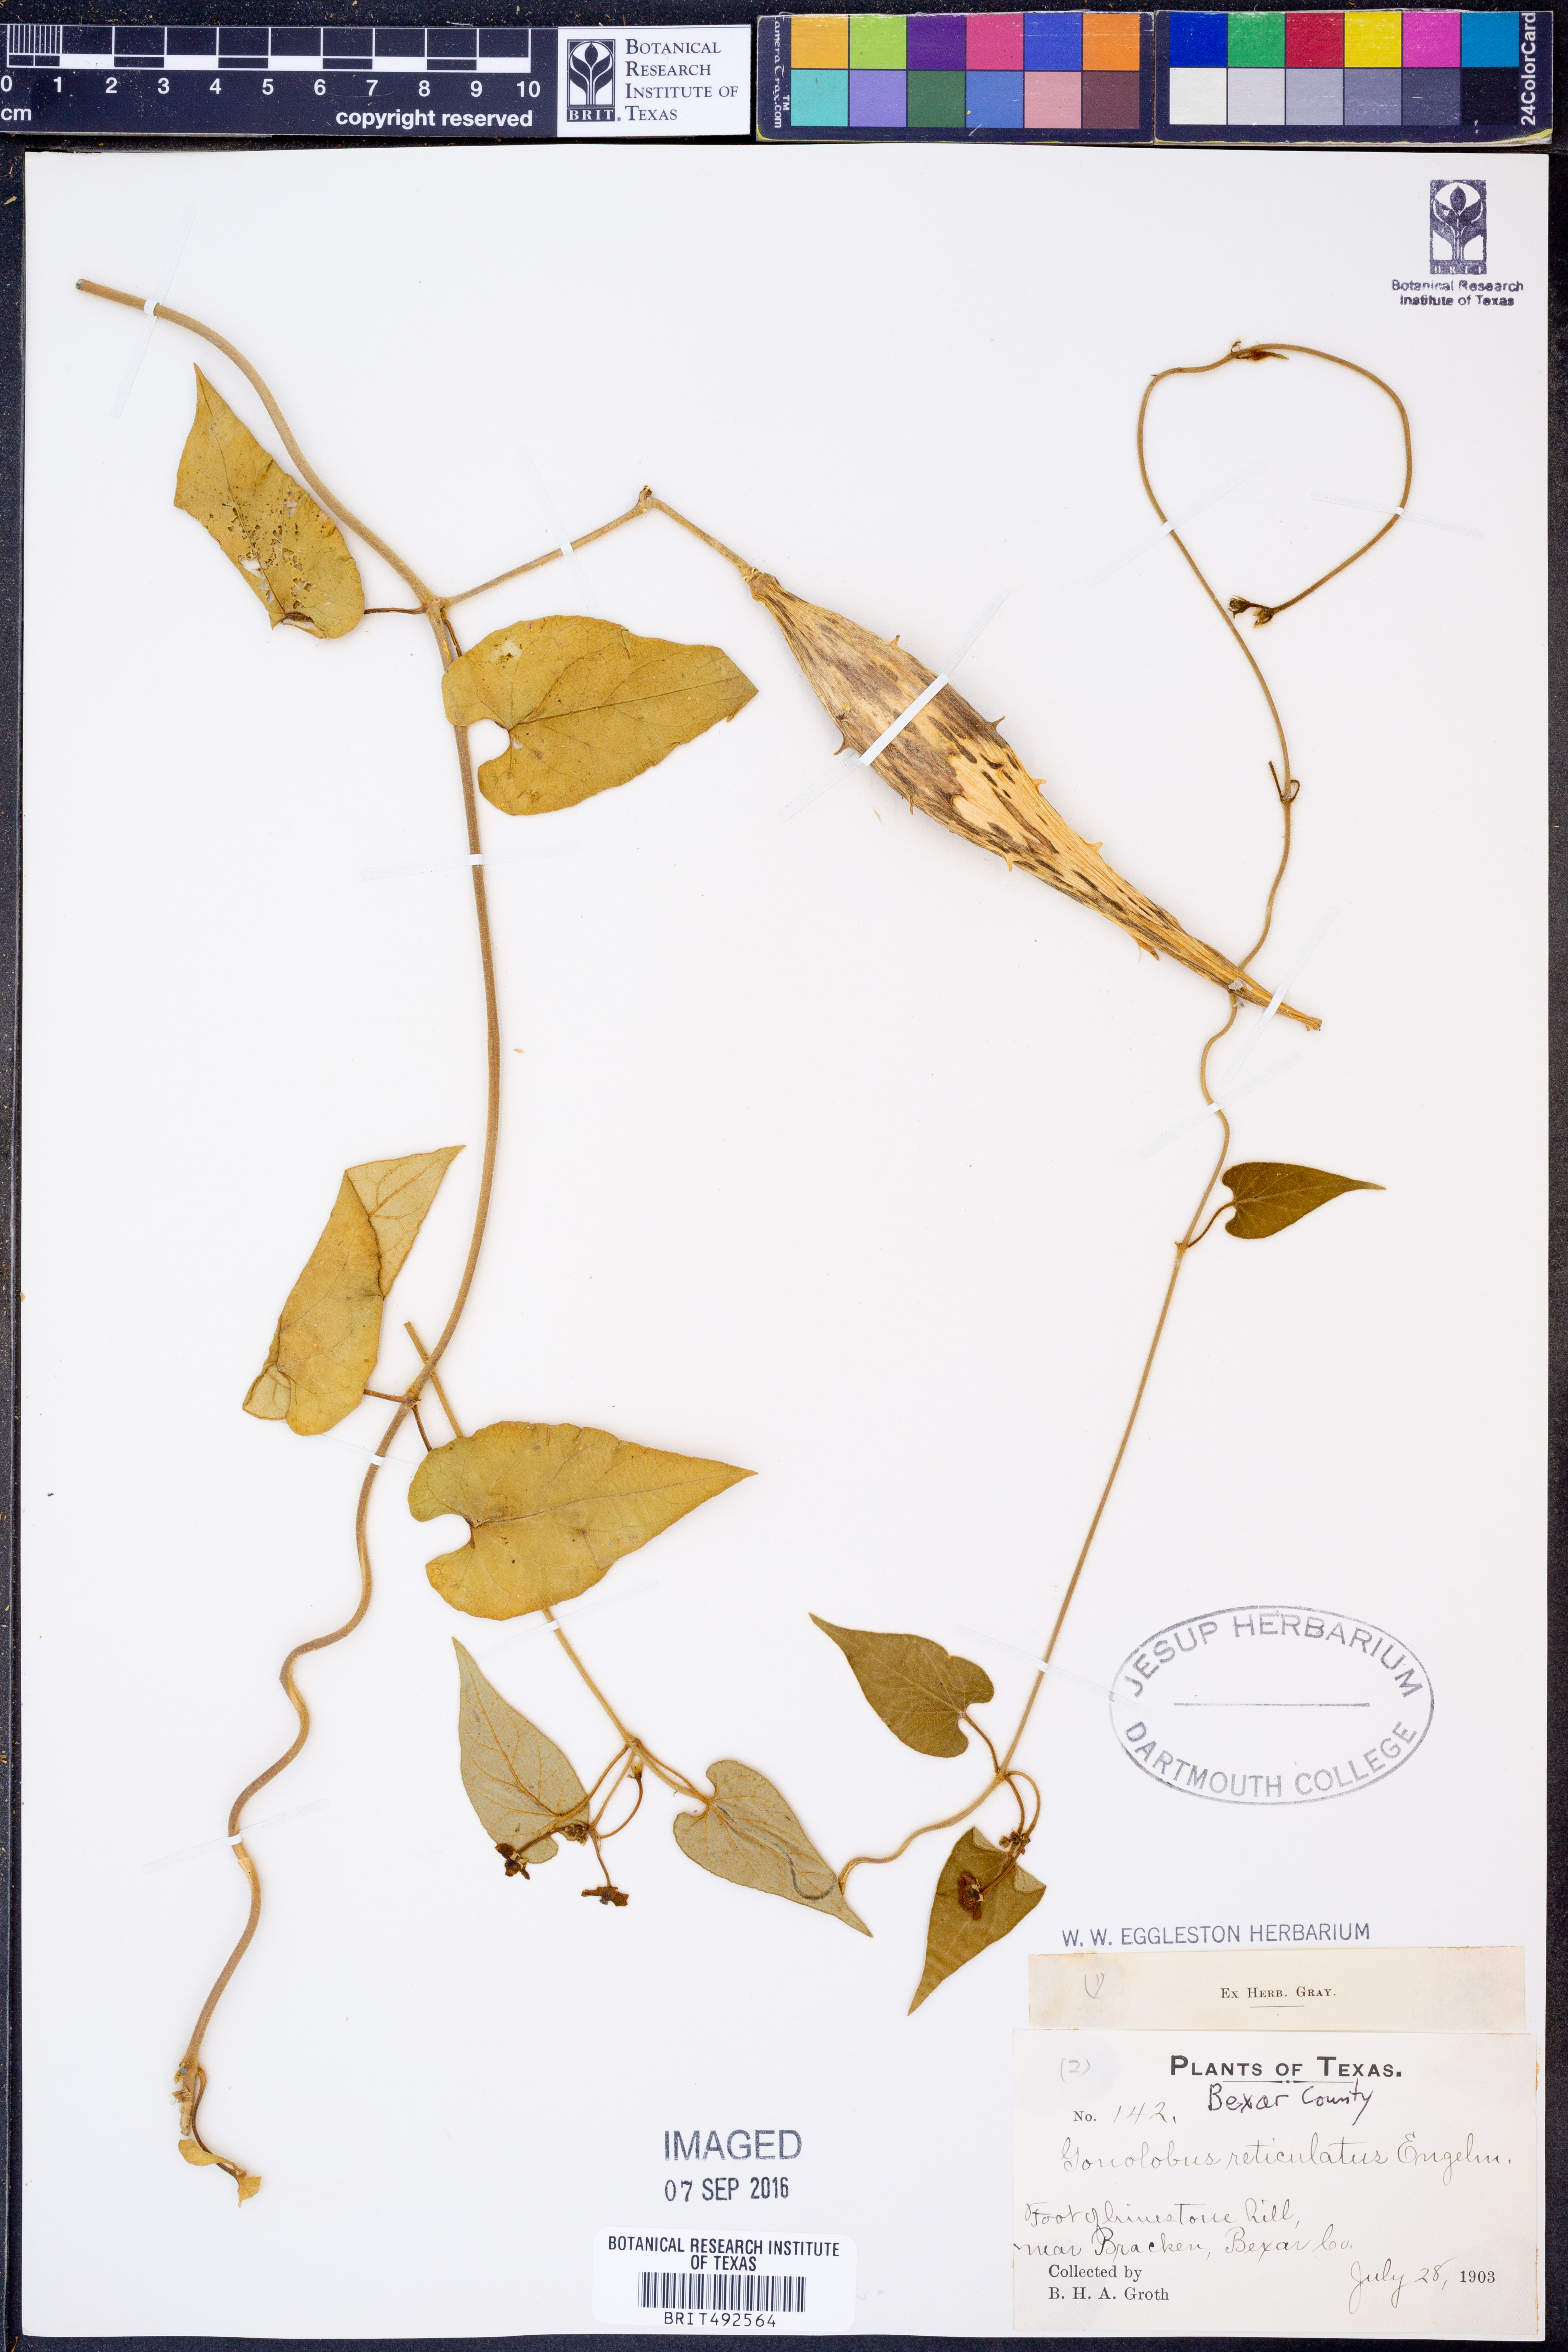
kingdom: Plantae
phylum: Tracheophyta
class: Magnoliopsida
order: Gentianales
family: Apocynaceae
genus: Dictyanthus
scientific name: Dictyanthus reticulatus
